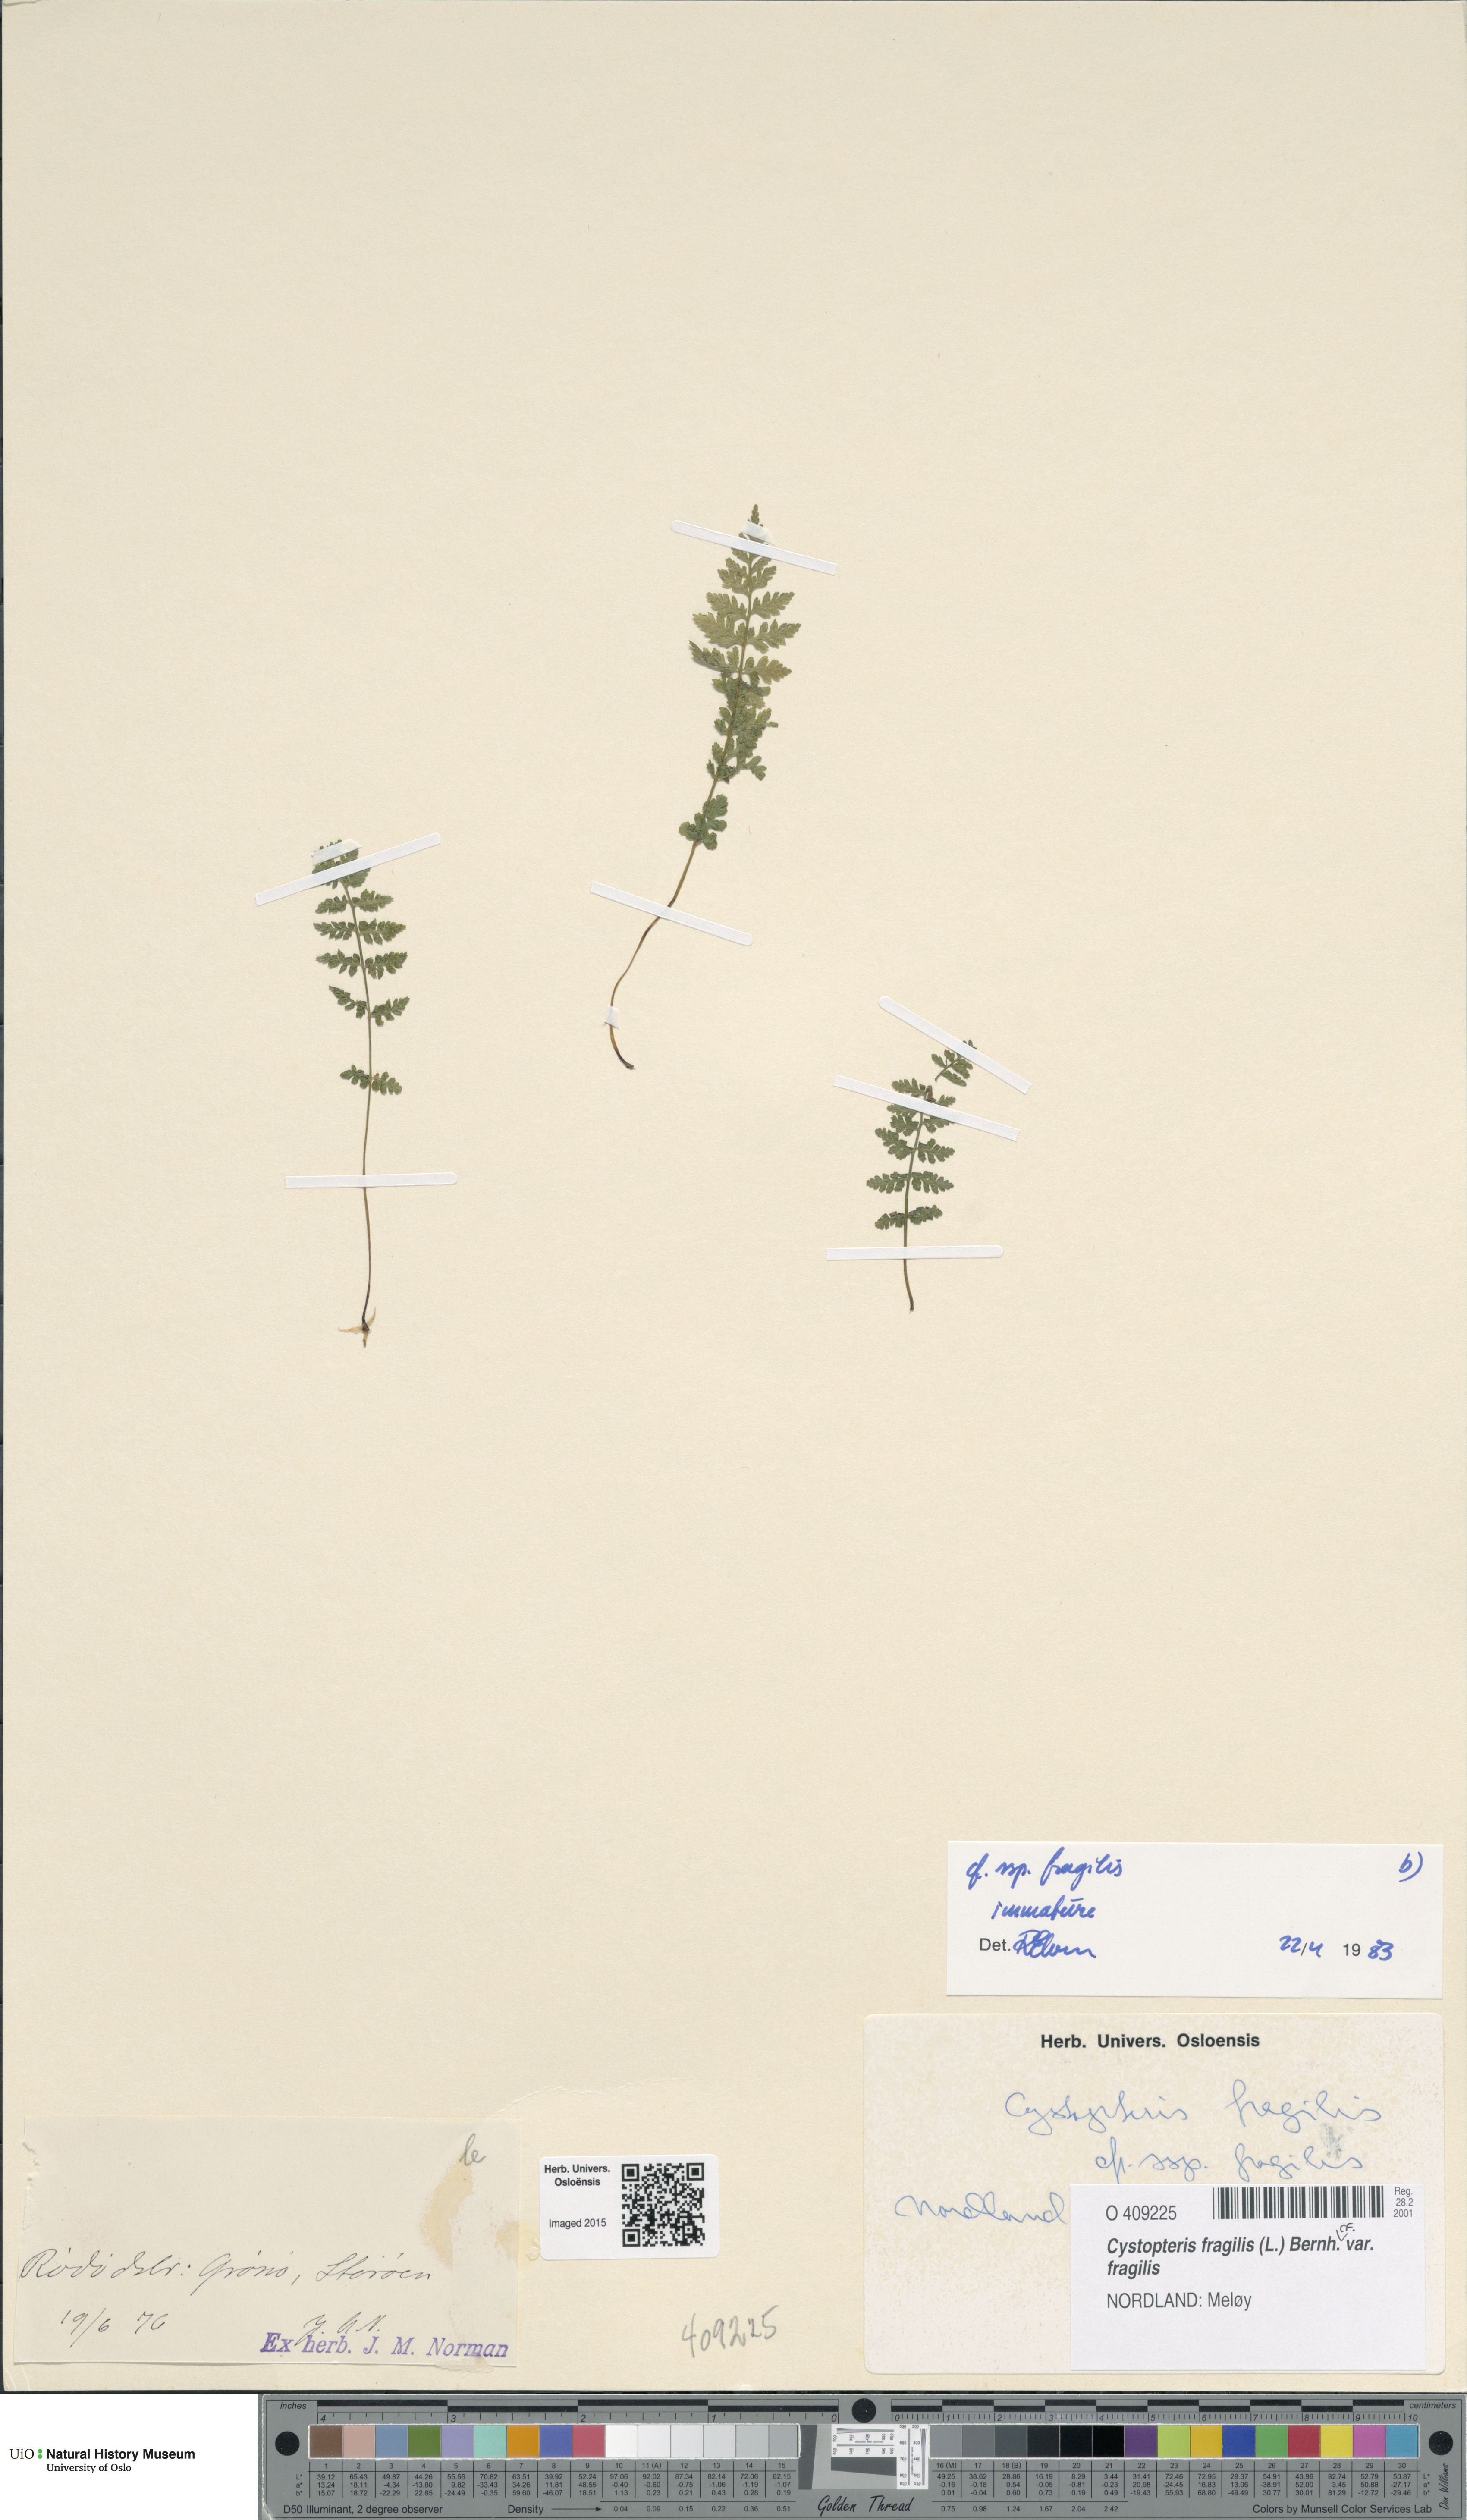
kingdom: Plantae
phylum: Tracheophyta
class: Polypodiopsida
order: Polypodiales
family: Cystopteridaceae
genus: Cystopteris
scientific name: Cystopteris fragilis
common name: Brittle bladder fern
